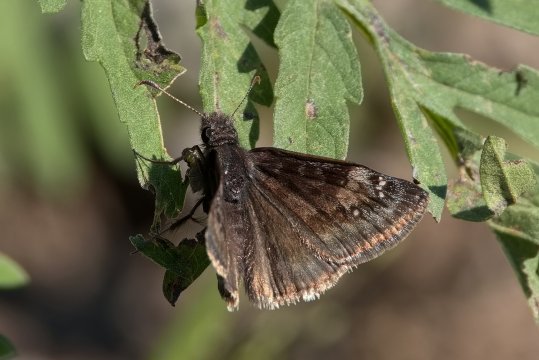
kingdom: Animalia
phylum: Arthropoda
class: Insecta
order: Lepidoptera
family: Hesperiidae
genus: Gesta
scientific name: Gesta
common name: Columbine Duskywing
